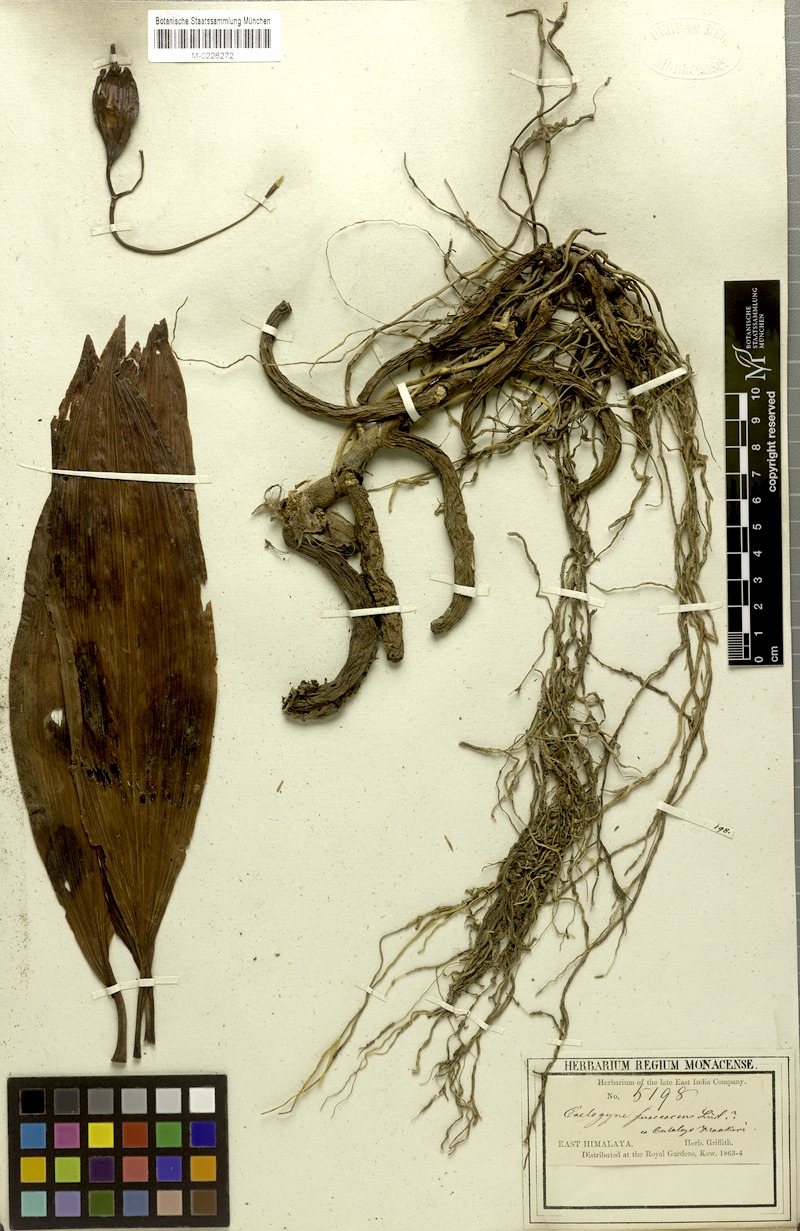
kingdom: Plantae
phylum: Tracheophyta
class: Liliopsida
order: Asparagales
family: Orchidaceae
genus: Coelogyne
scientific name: Coelogyne fuscescens
